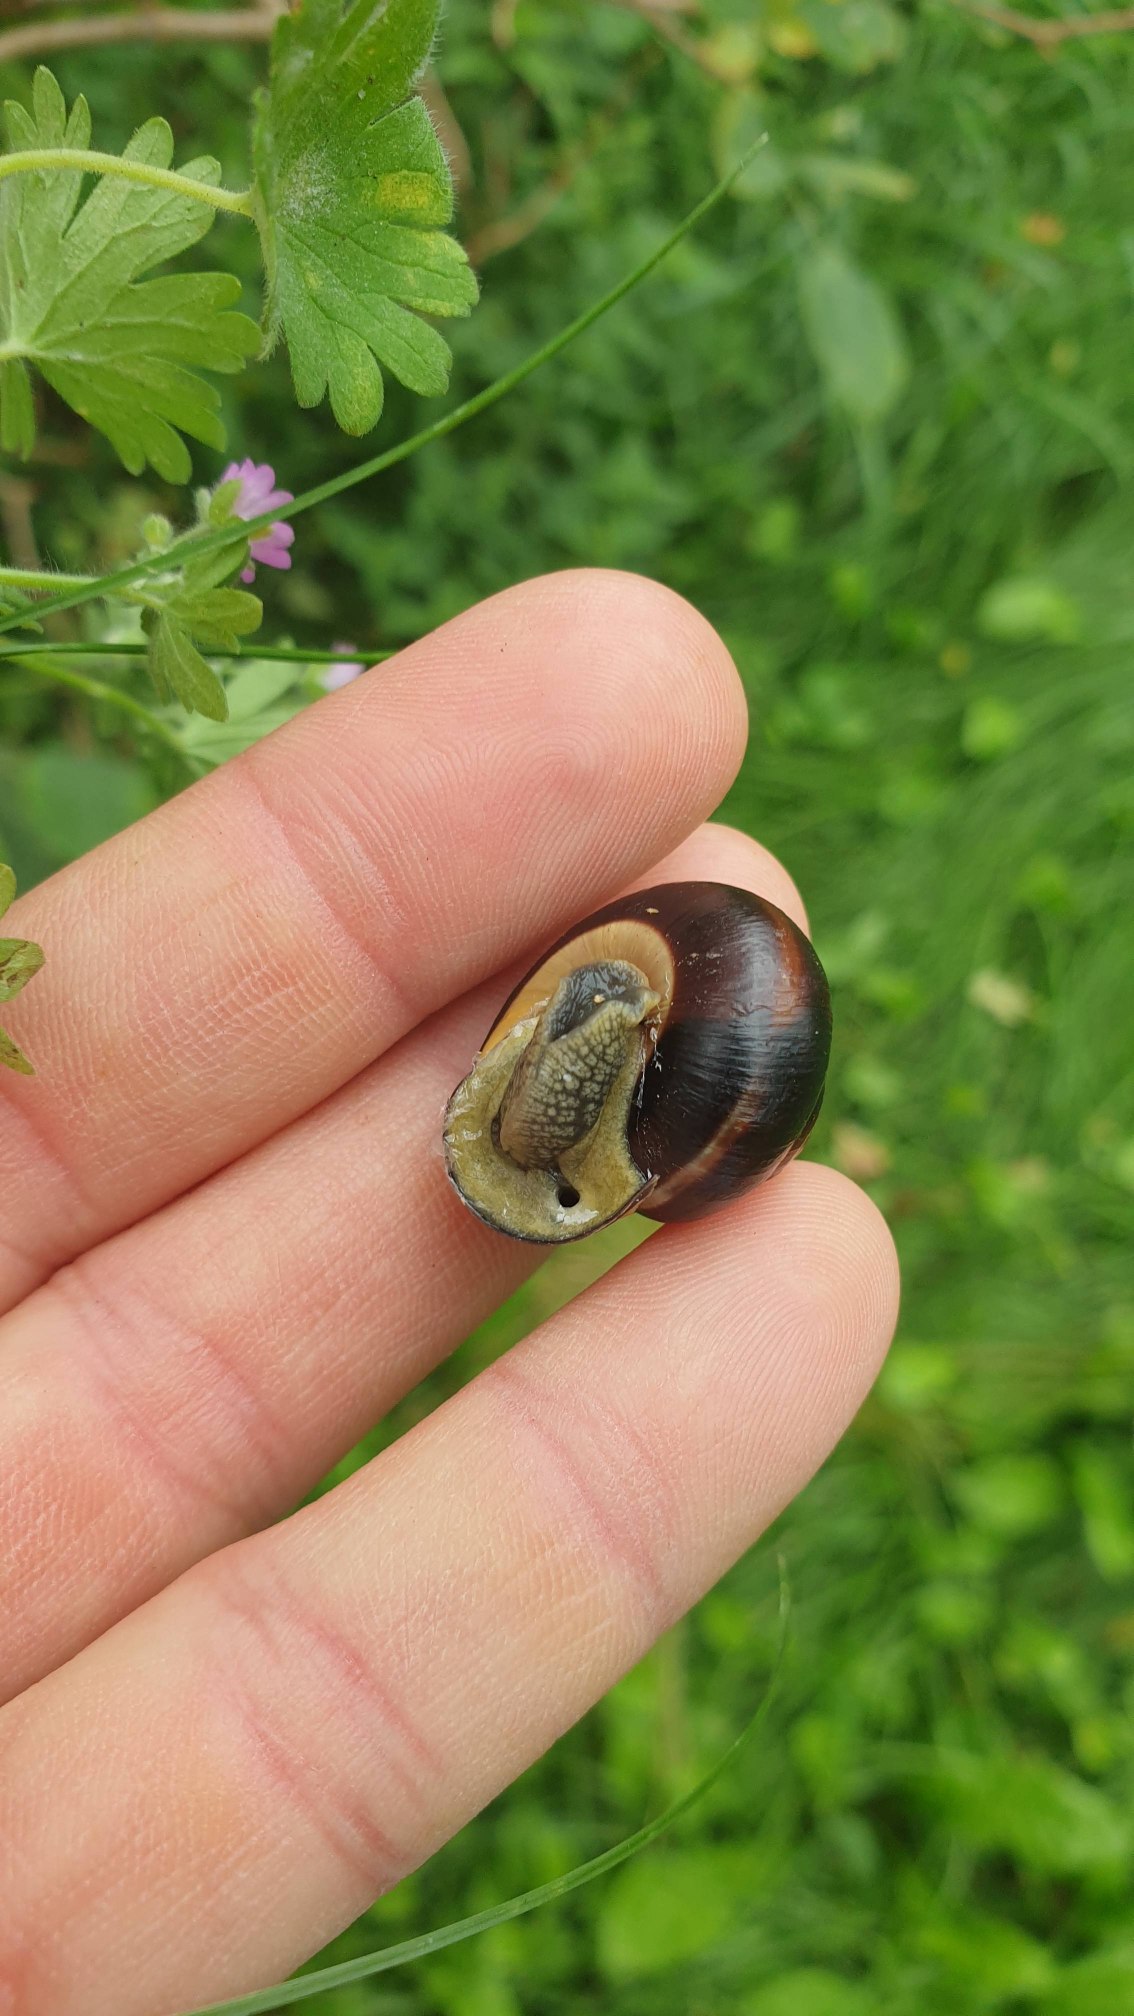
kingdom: Animalia
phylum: Mollusca
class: Gastropoda
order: Stylommatophora
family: Helicidae
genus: Cepaea
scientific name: Cepaea nemoralis
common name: Lundsnegl
